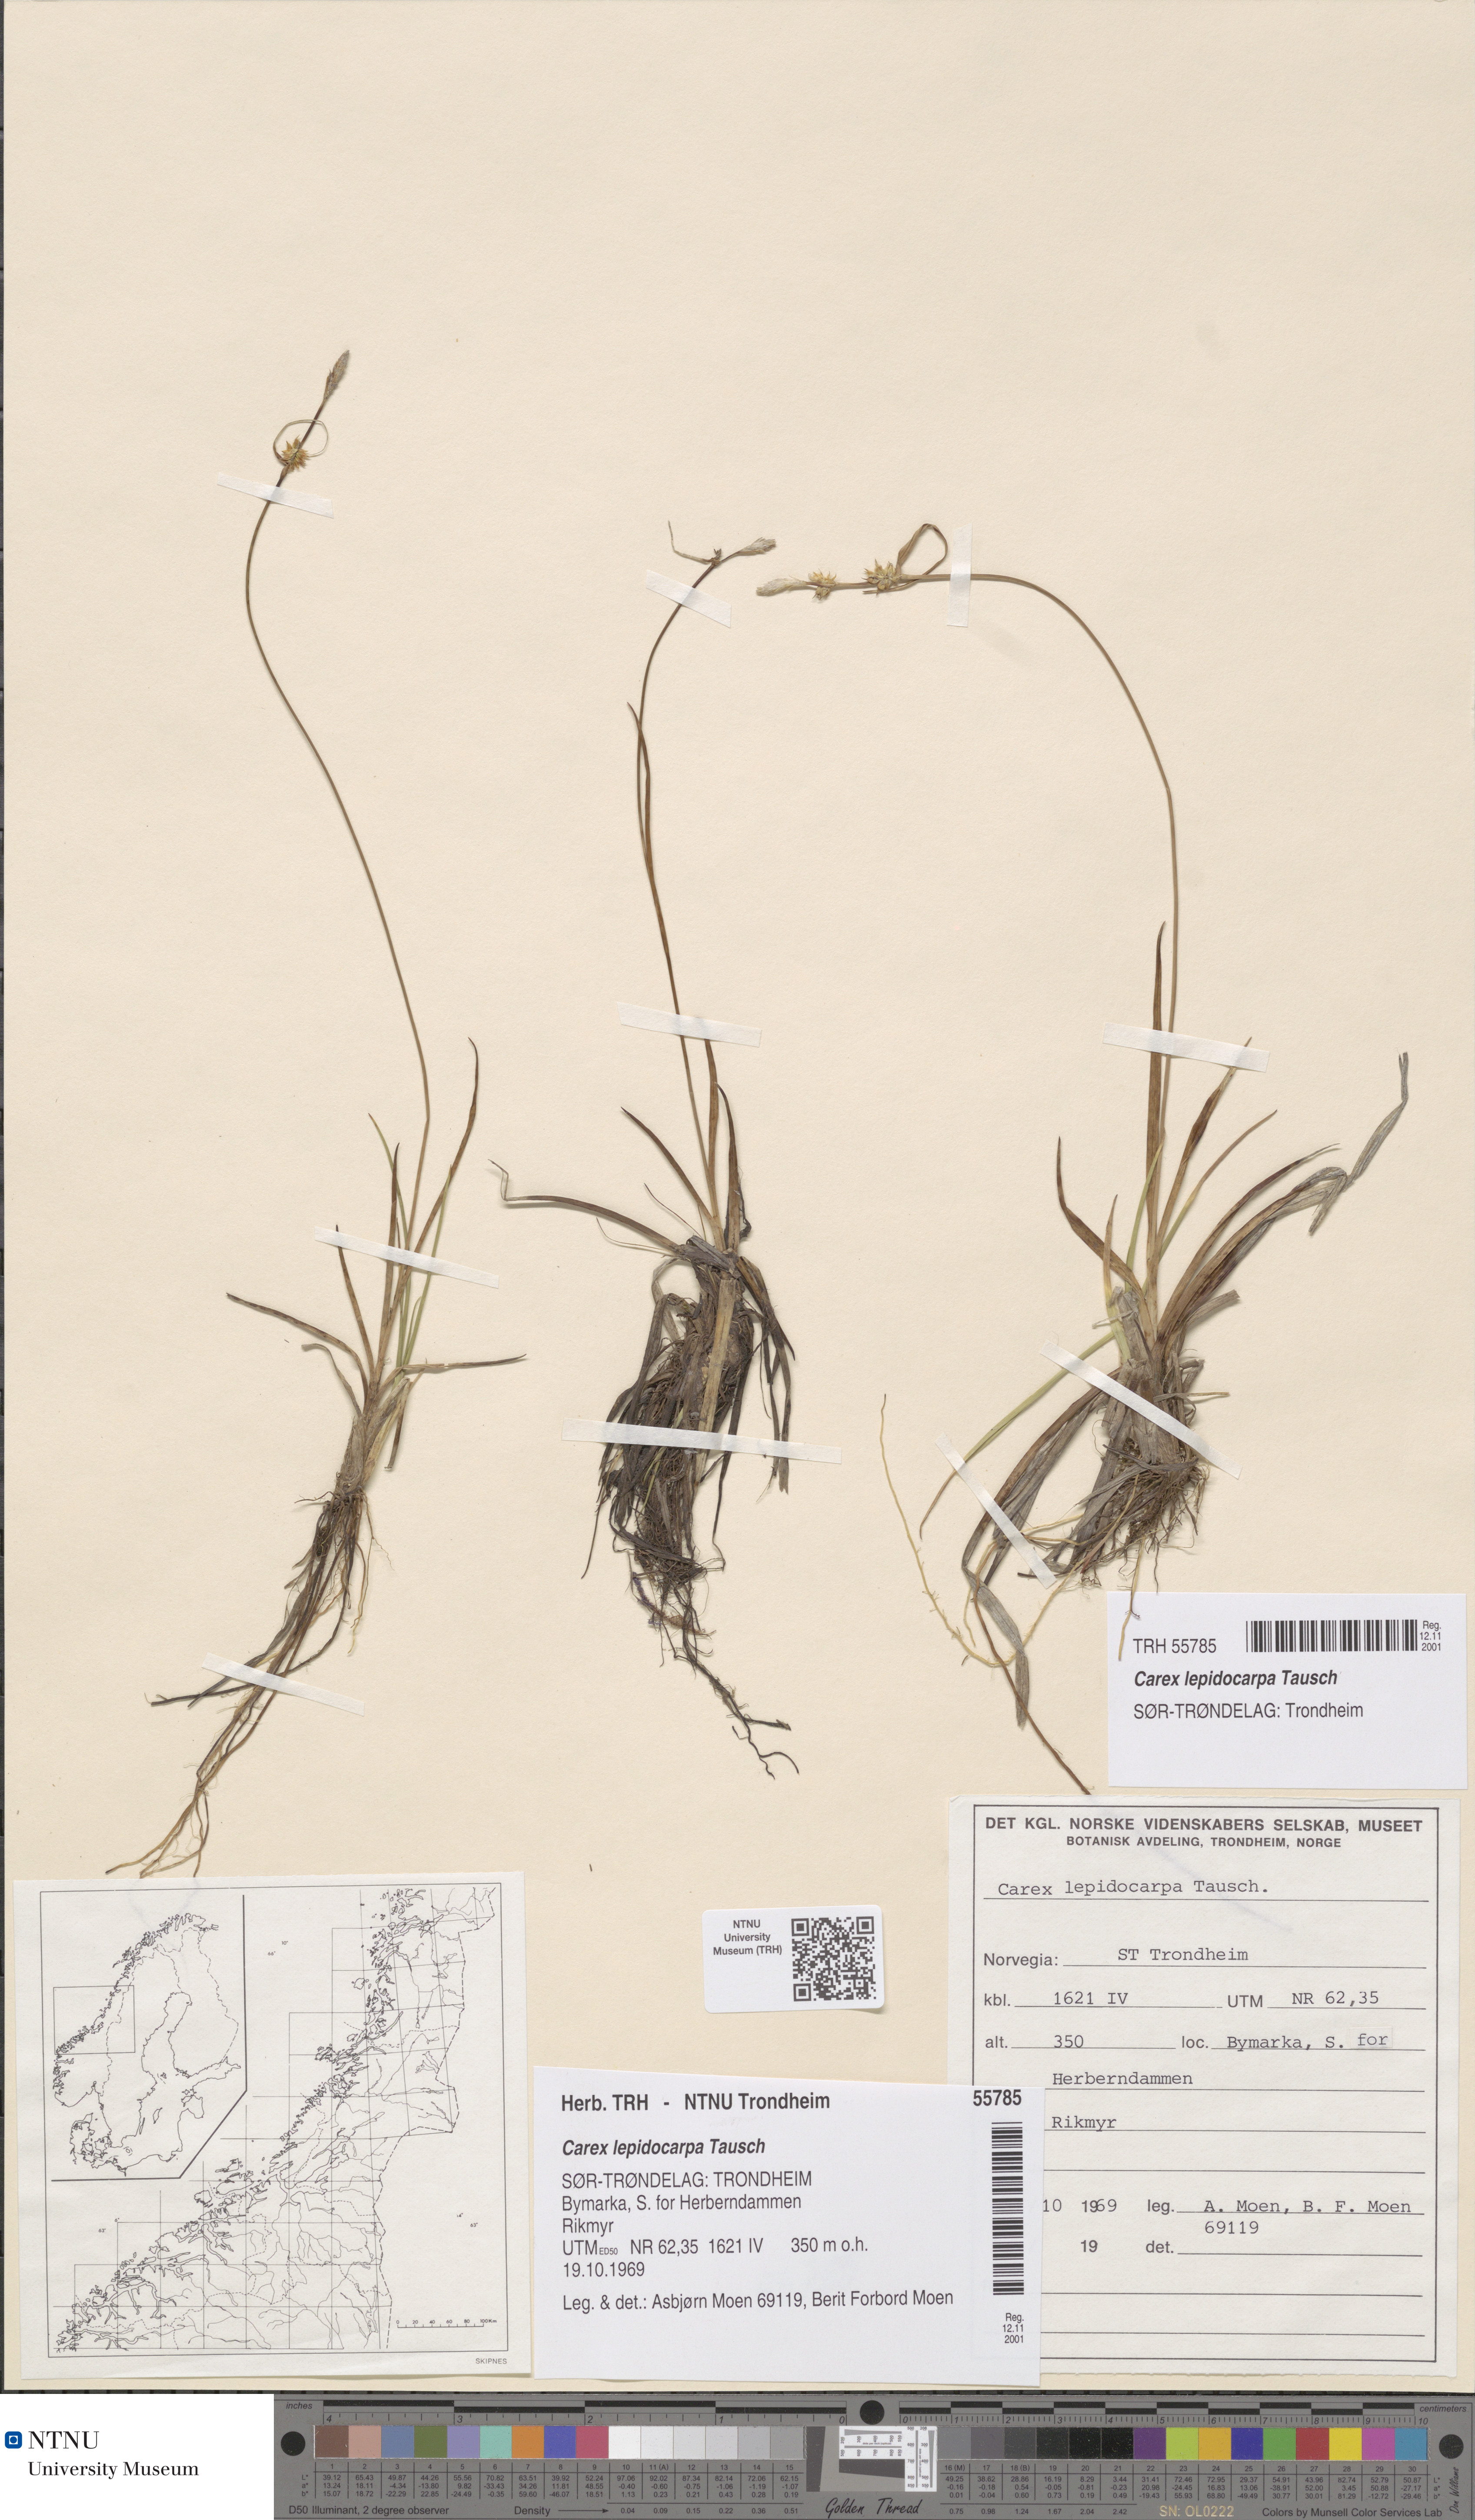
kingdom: Plantae
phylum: Tracheophyta
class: Liliopsida
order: Poales
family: Cyperaceae
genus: Carex
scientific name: Carex lepidocarpa
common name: Long-stalked yellow-sedge
